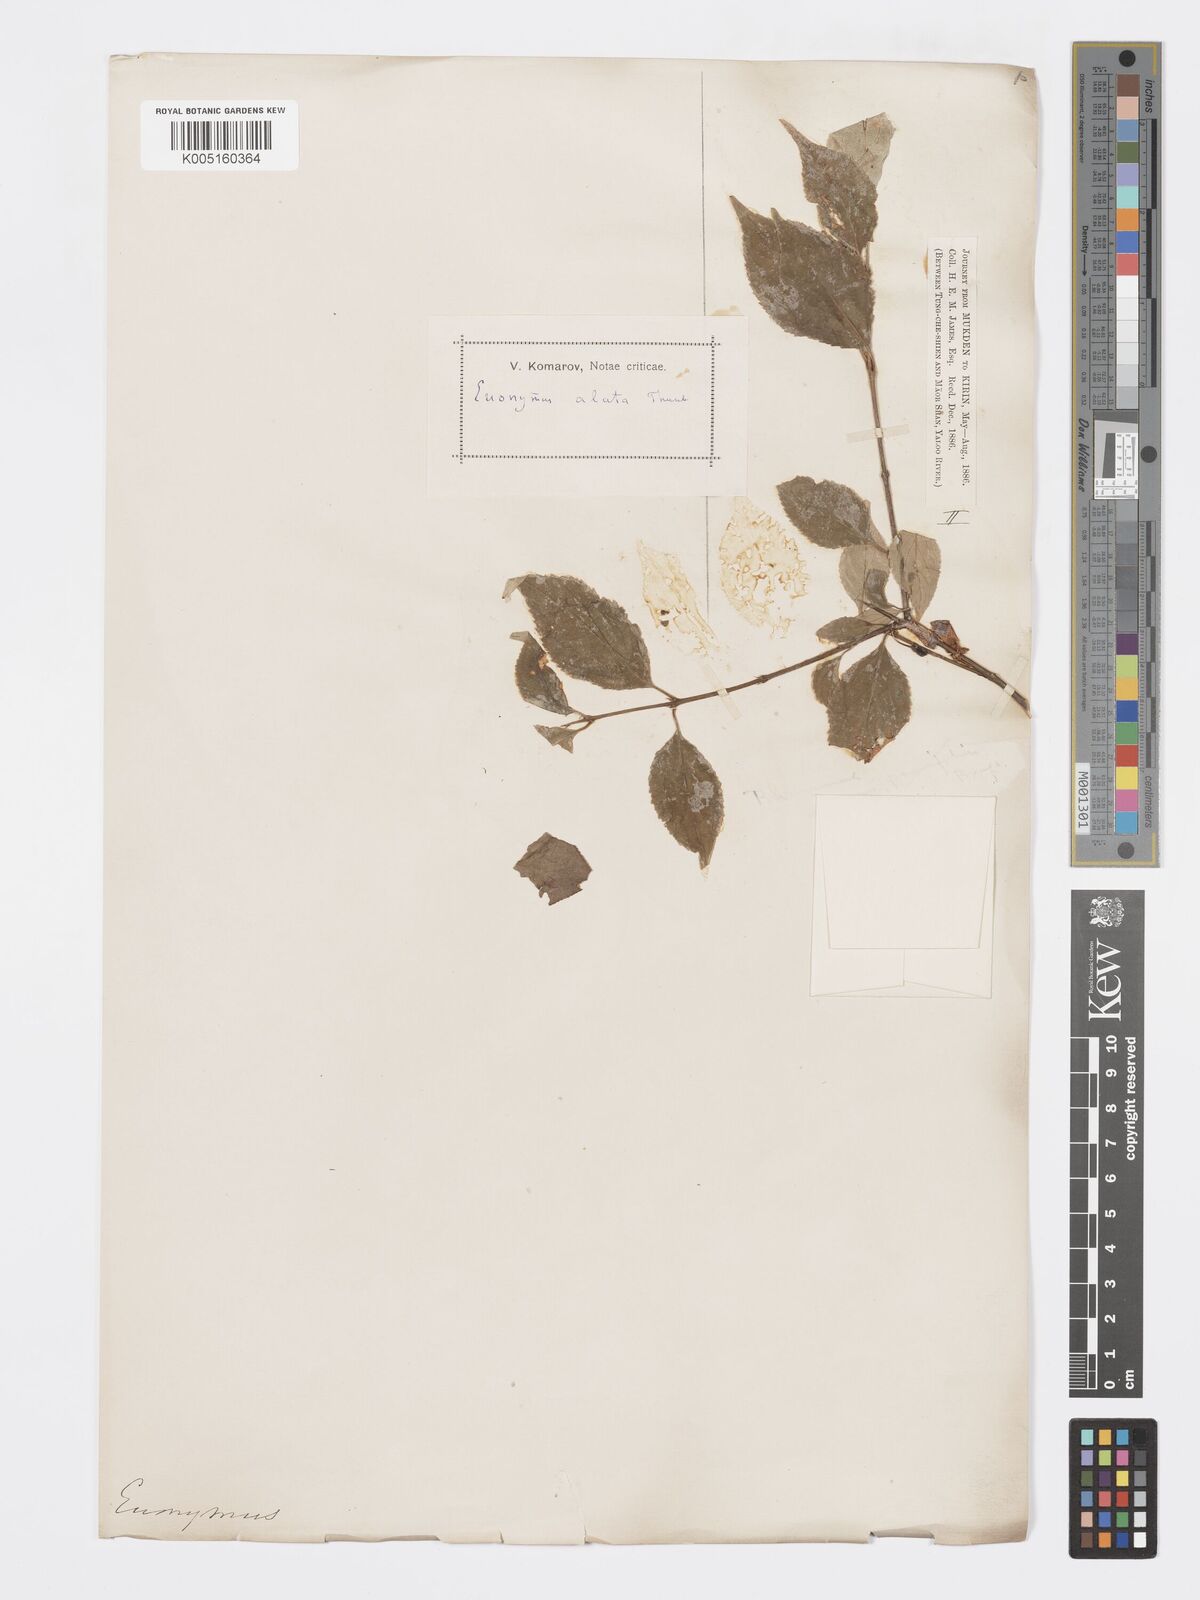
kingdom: Plantae
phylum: Tracheophyta
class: Magnoliopsida
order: Celastrales
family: Celastraceae
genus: Euonymus
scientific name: Euonymus
